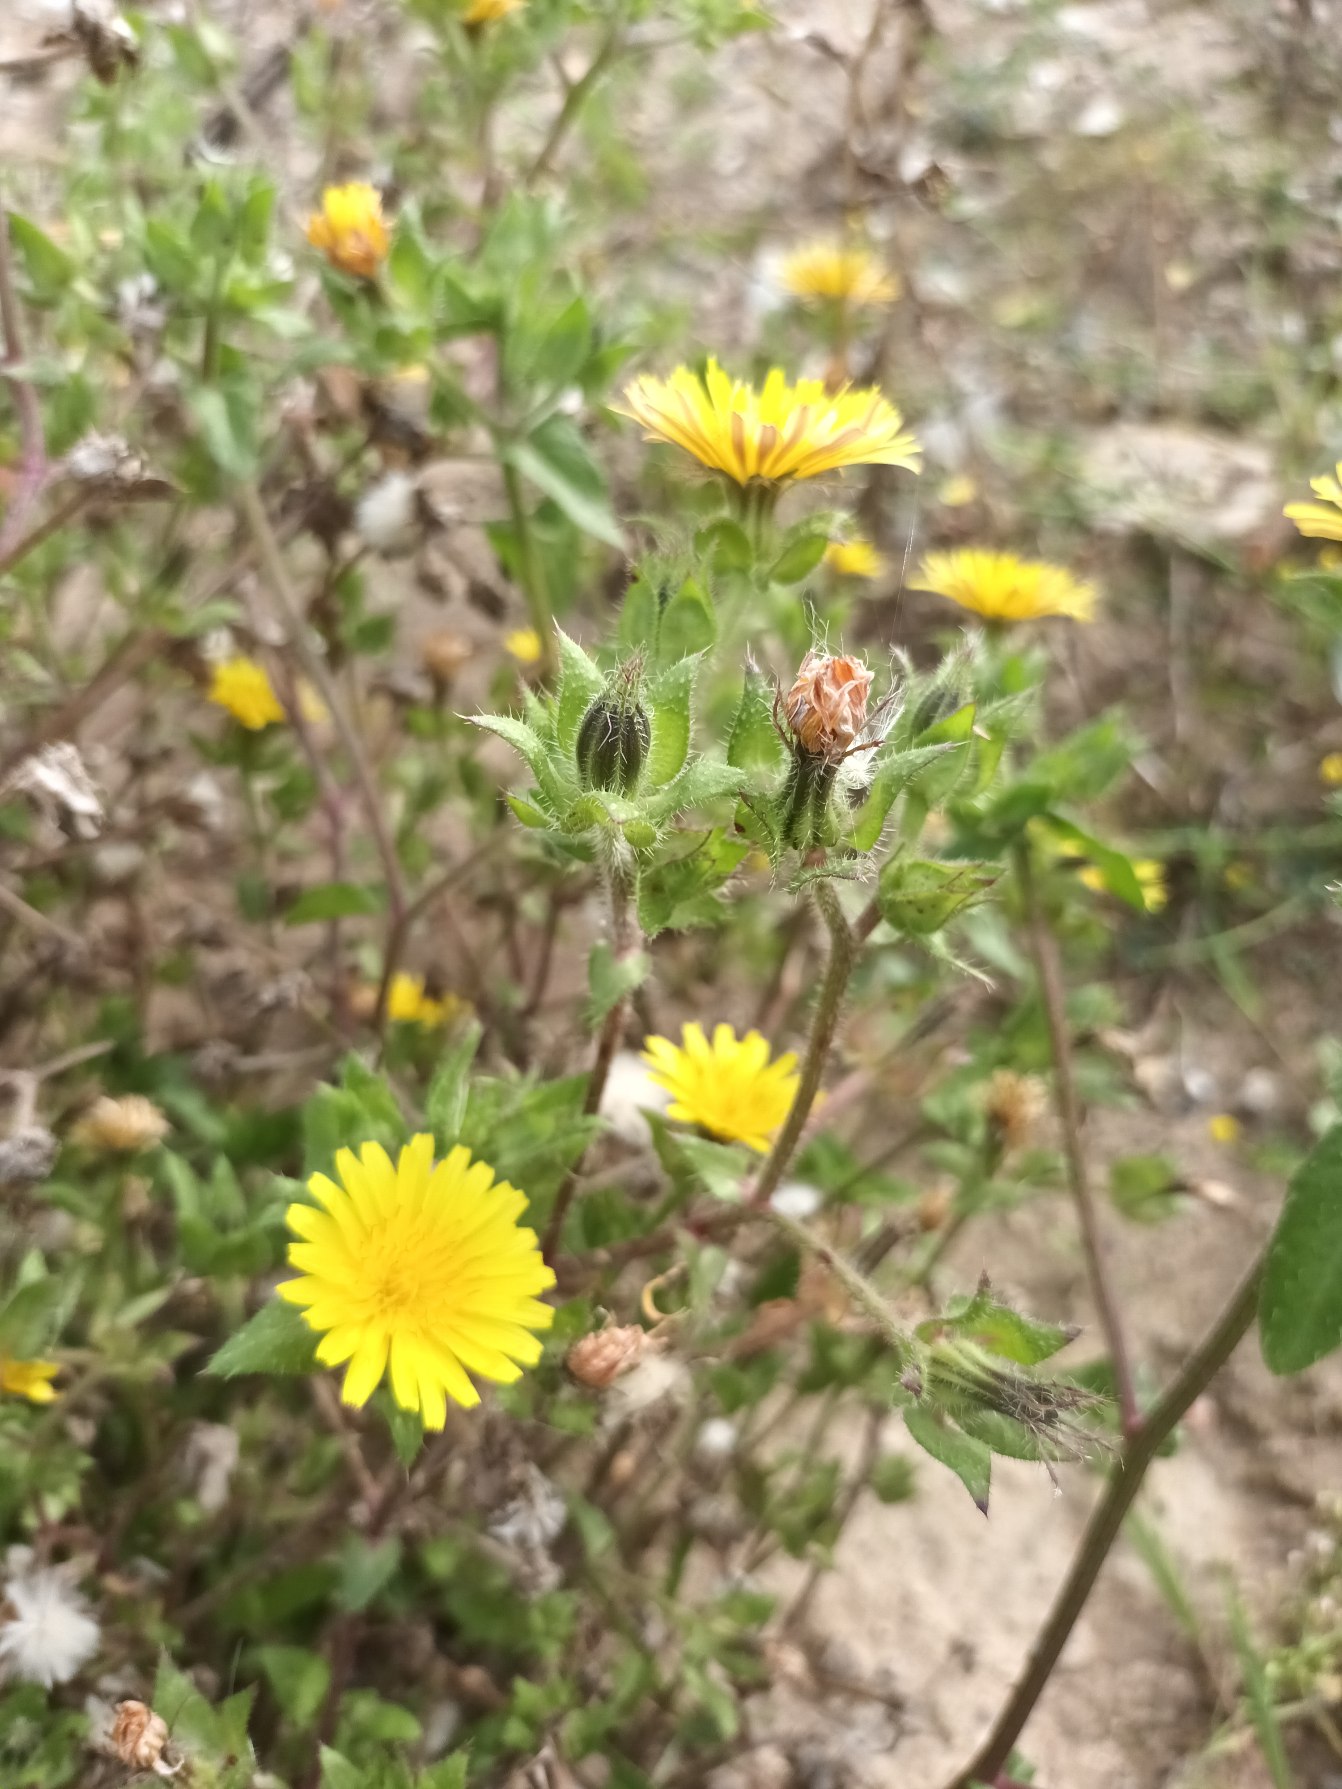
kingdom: Plantae
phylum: Tracheophyta
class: Magnoliopsida
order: Asterales
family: Asteraceae
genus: Helminthotheca
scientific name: Helminthotheca echioides
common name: Vingekurv
